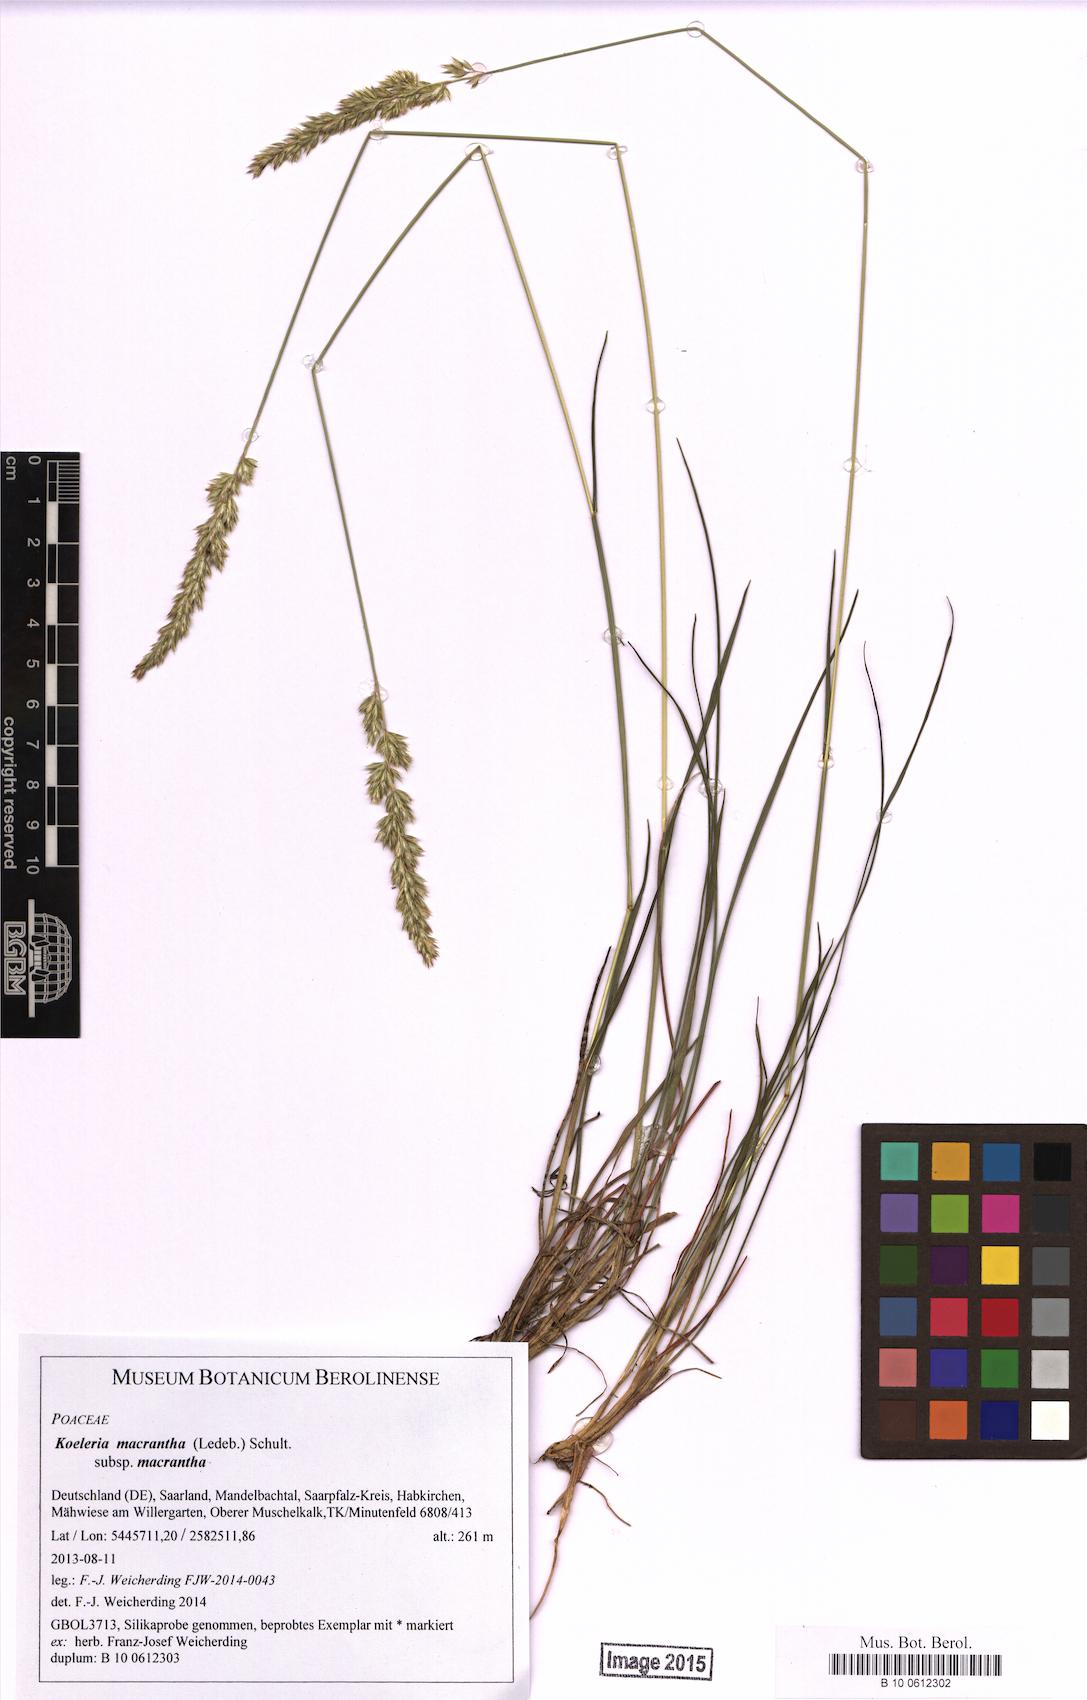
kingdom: Plantae
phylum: Tracheophyta
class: Liliopsida
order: Poales
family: Poaceae
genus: Koeleria
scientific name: Koeleria macrantha
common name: Crested hair-grass
